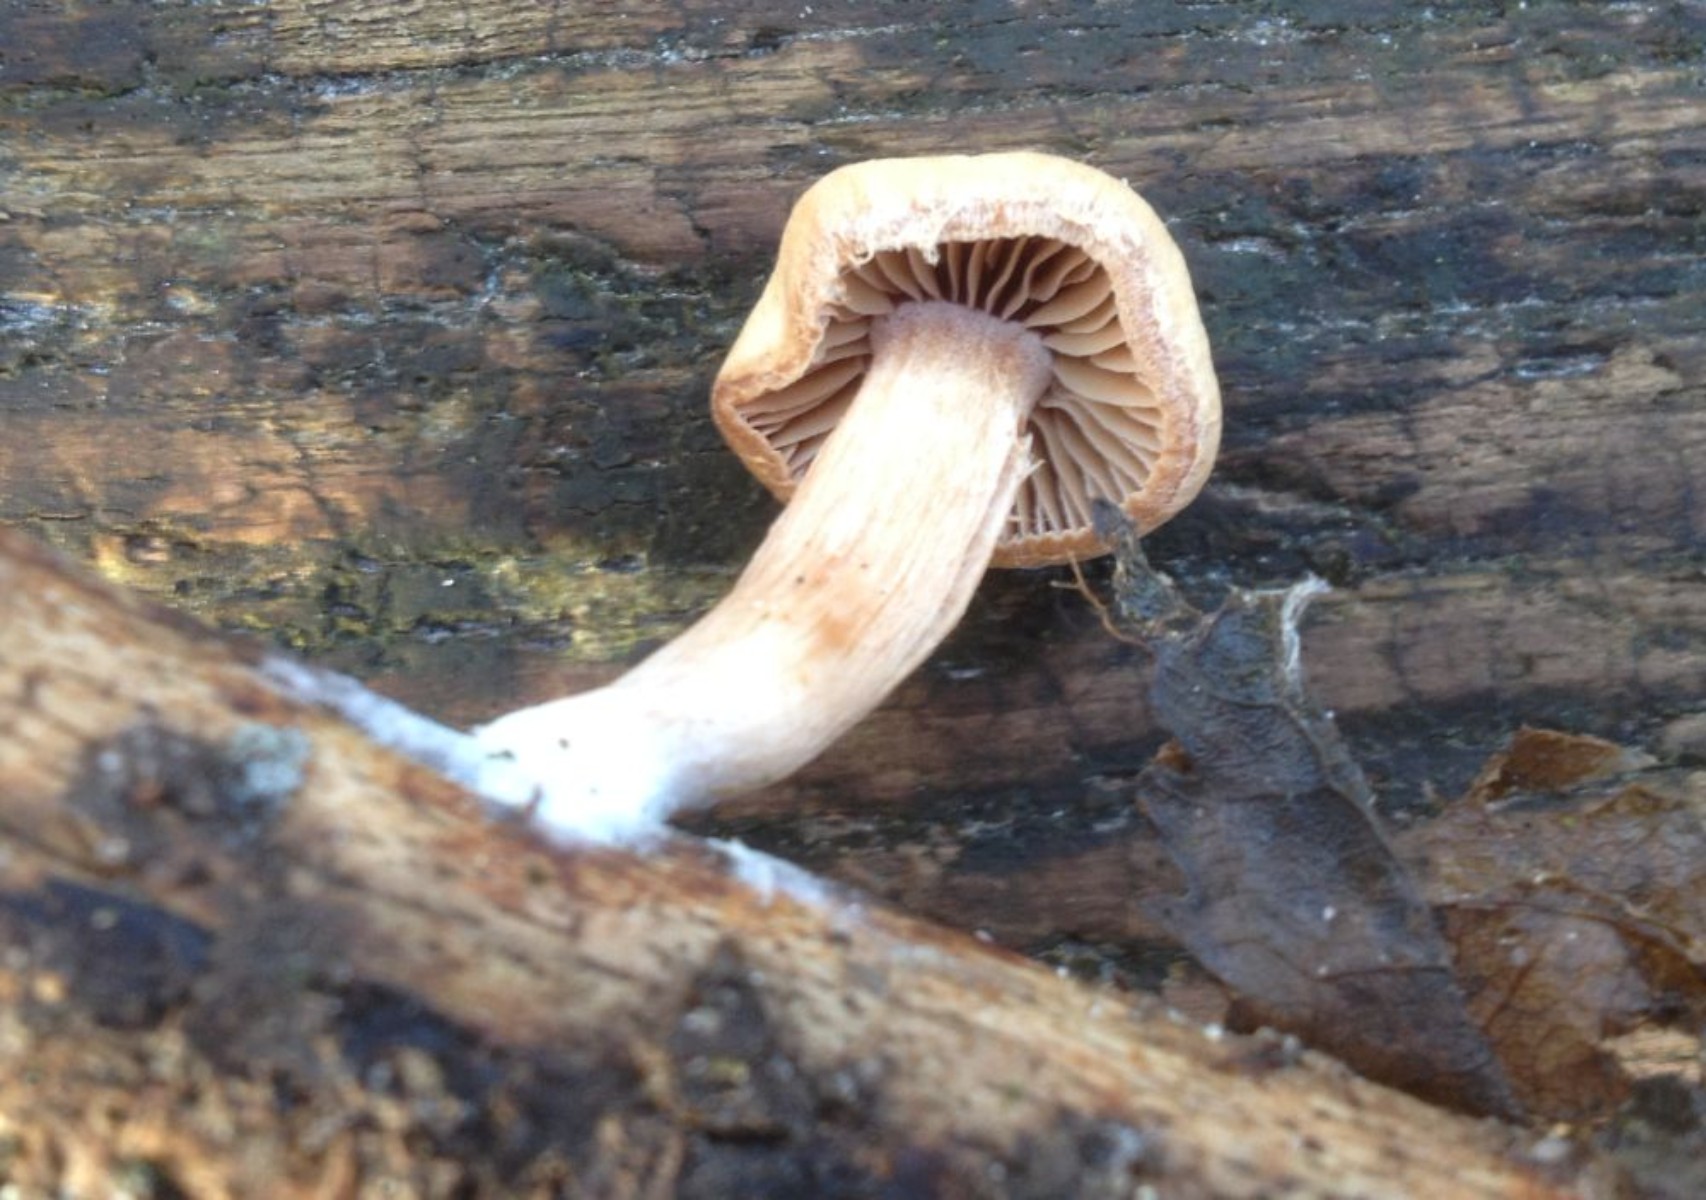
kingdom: Fungi
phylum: Basidiomycota
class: Agaricomycetes
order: Agaricales
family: Tubariaceae
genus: Tubaria
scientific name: Tubaria furfuracea
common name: kliddet fnughat
